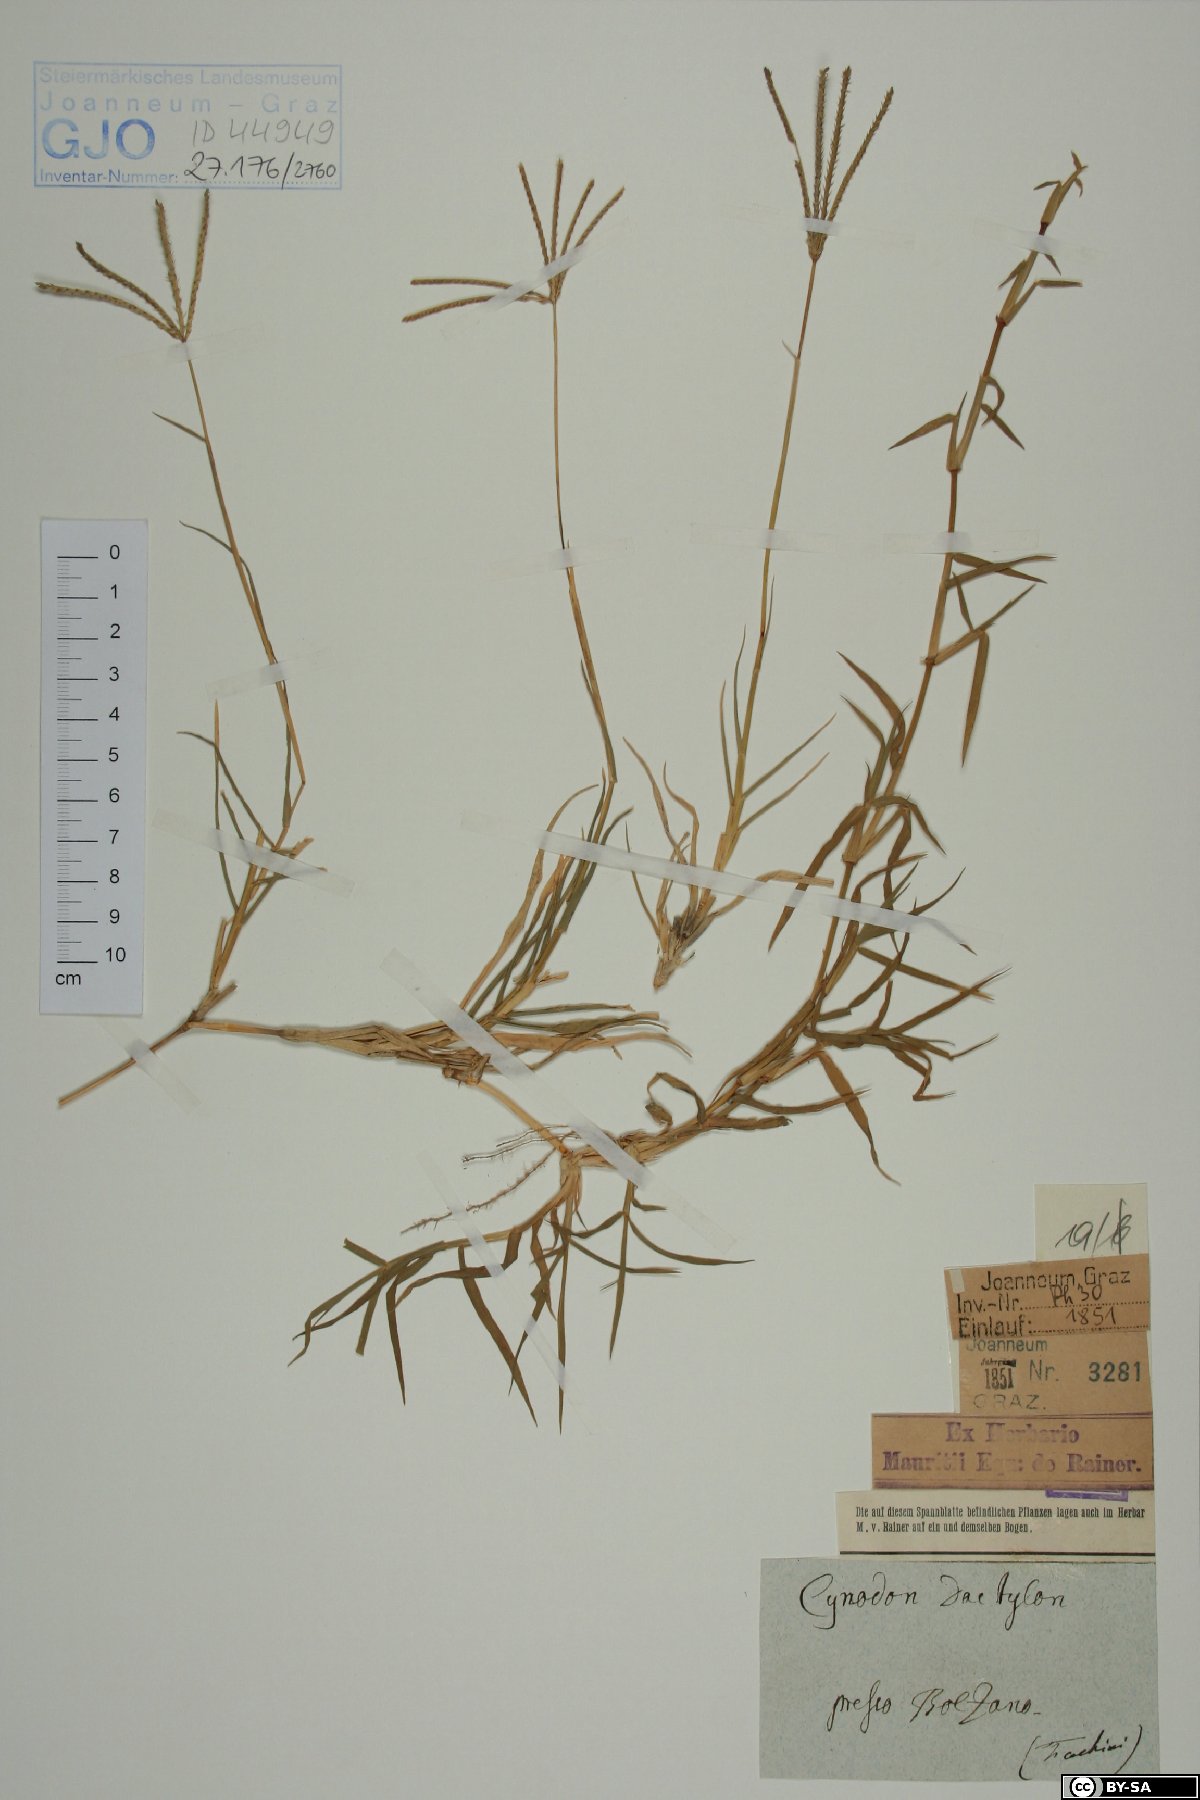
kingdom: Plantae
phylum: Tracheophyta
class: Liliopsida
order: Poales
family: Poaceae
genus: Cynodon
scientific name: Cynodon dactylon
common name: Bermuda grass
